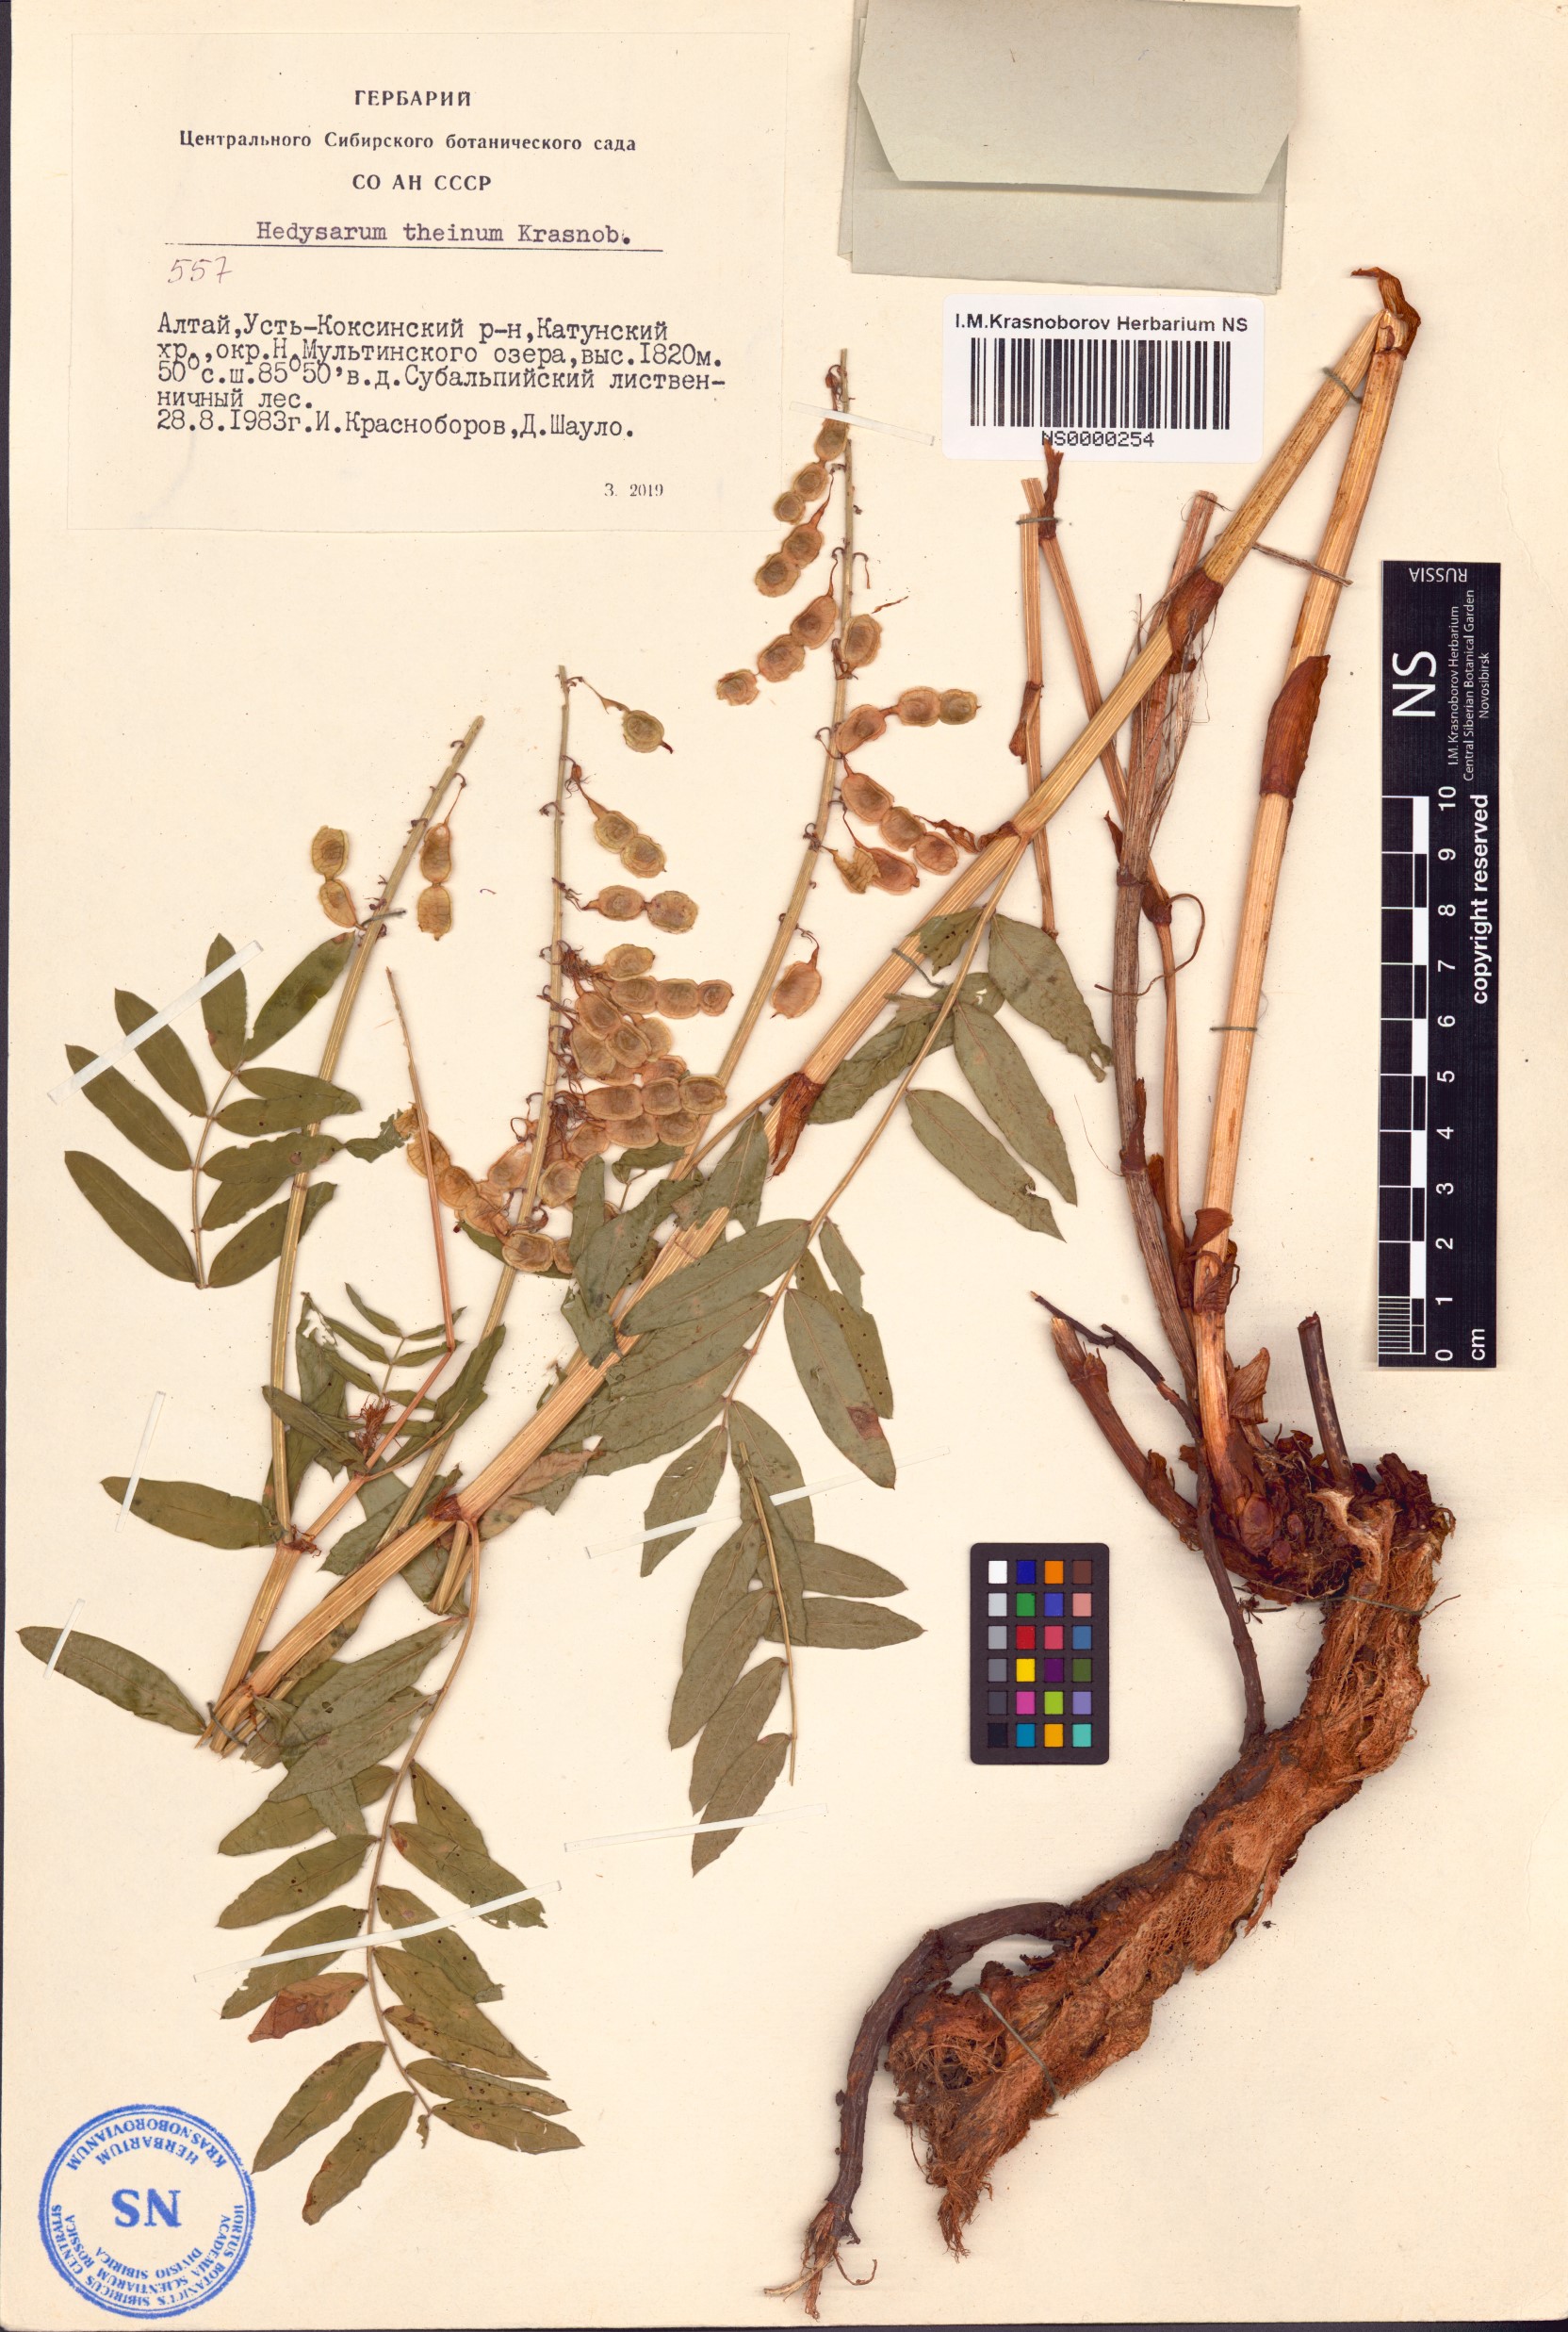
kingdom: Plantae
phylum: Tracheophyta
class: Magnoliopsida
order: Fabales
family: Fabaceae
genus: Hedysarum
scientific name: Hedysarum theinum
